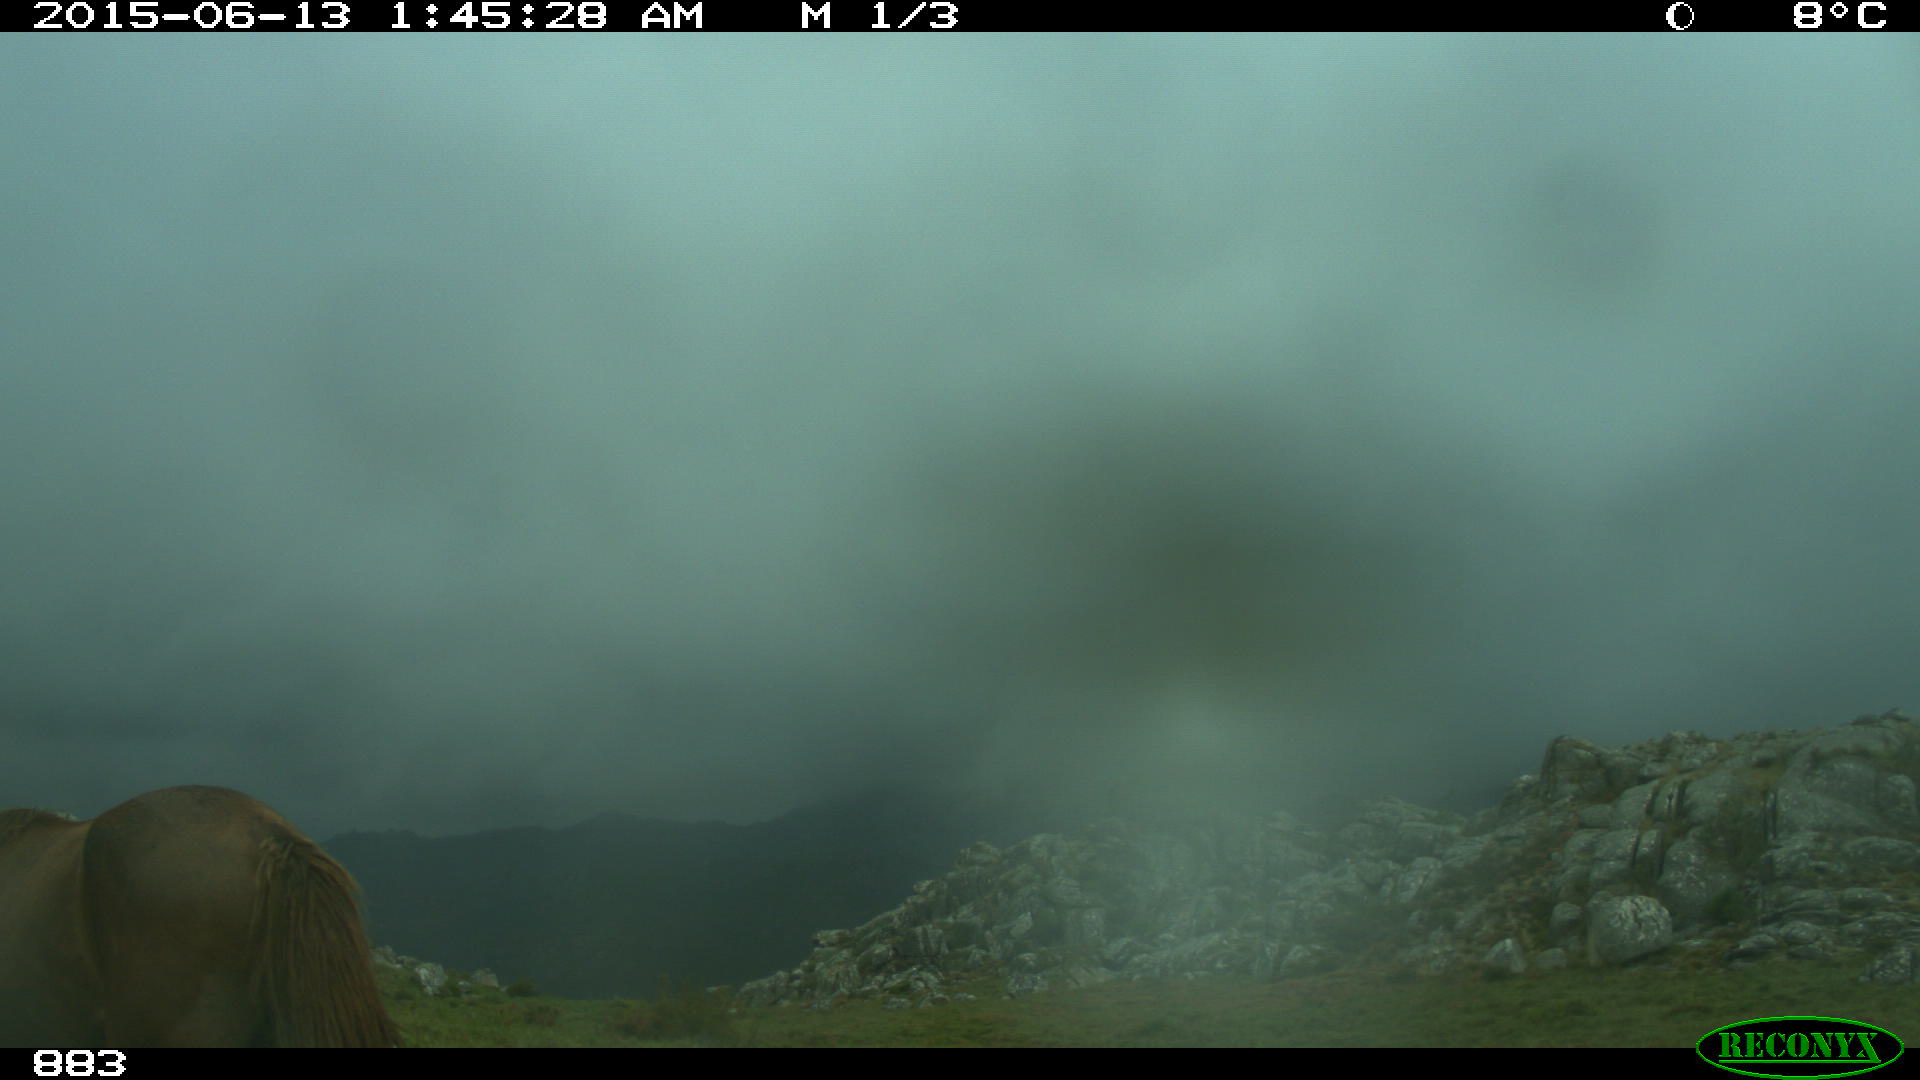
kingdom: Animalia
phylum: Chordata
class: Mammalia
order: Perissodactyla
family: Equidae
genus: Equus
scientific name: Equus caballus
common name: Horse
